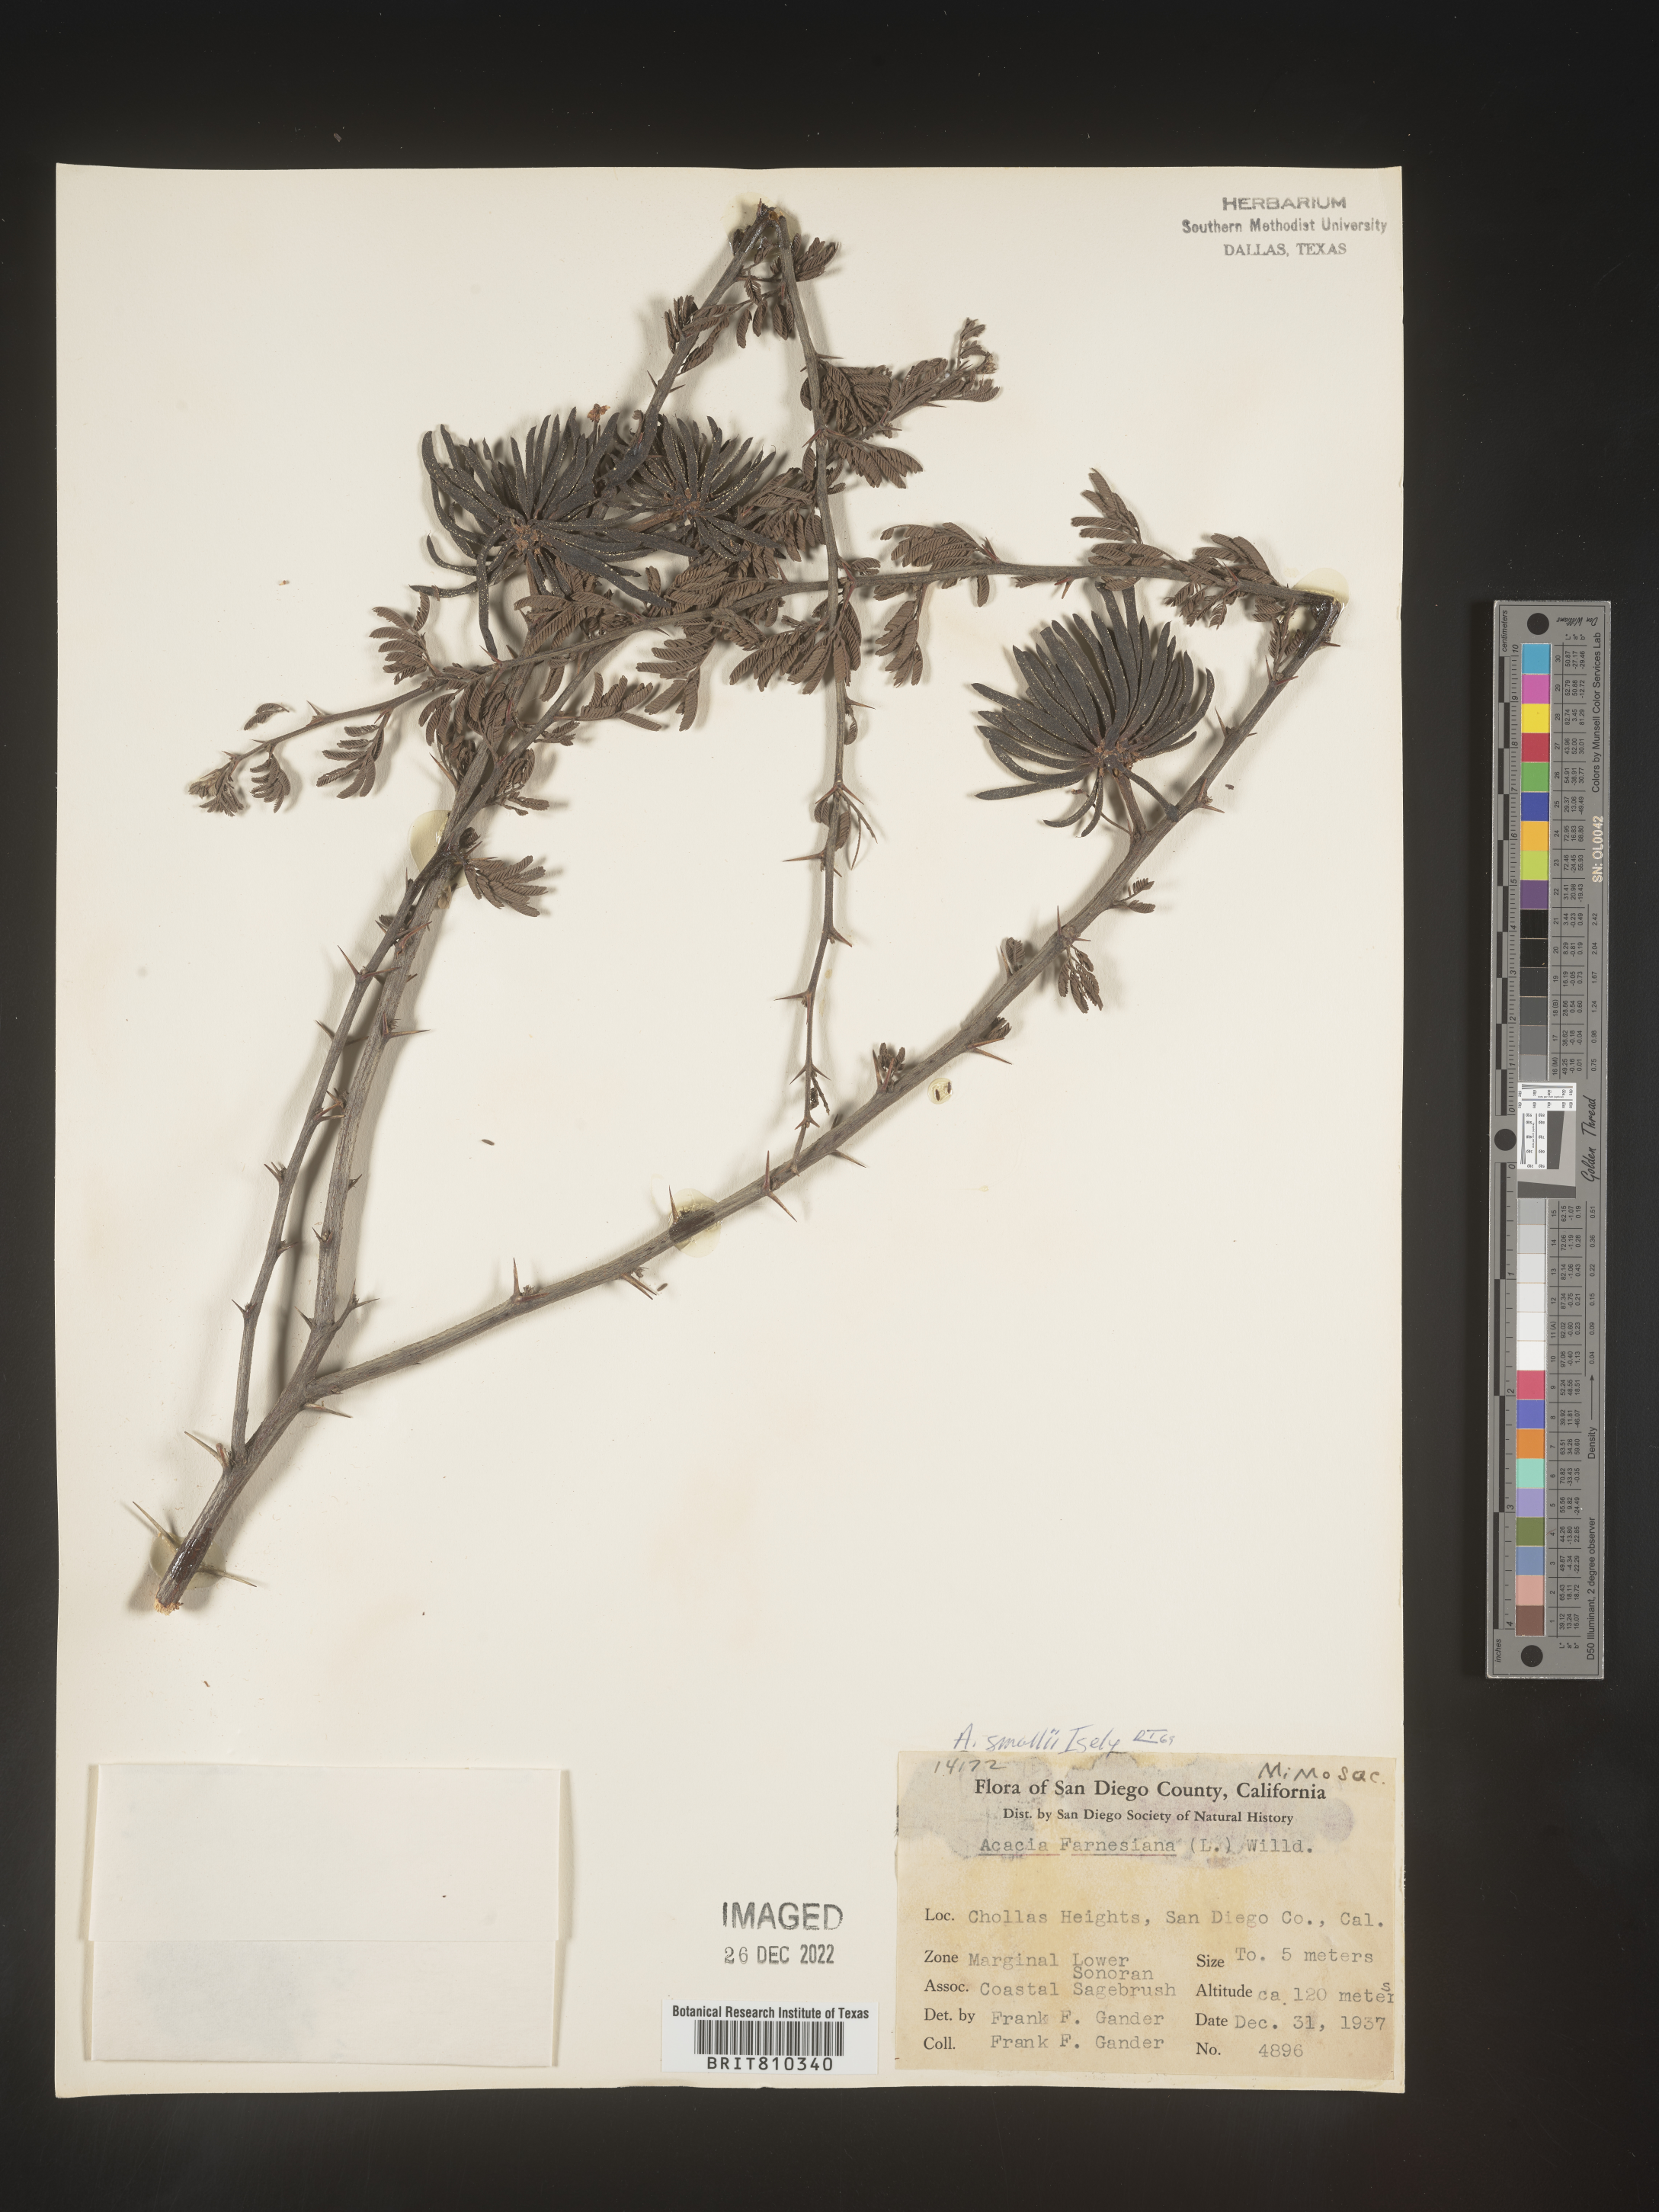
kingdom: Plantae
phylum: Tracheophyta
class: Magnoliopsida
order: Fabales
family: Fabaceae
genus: Acacia
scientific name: Acacia
